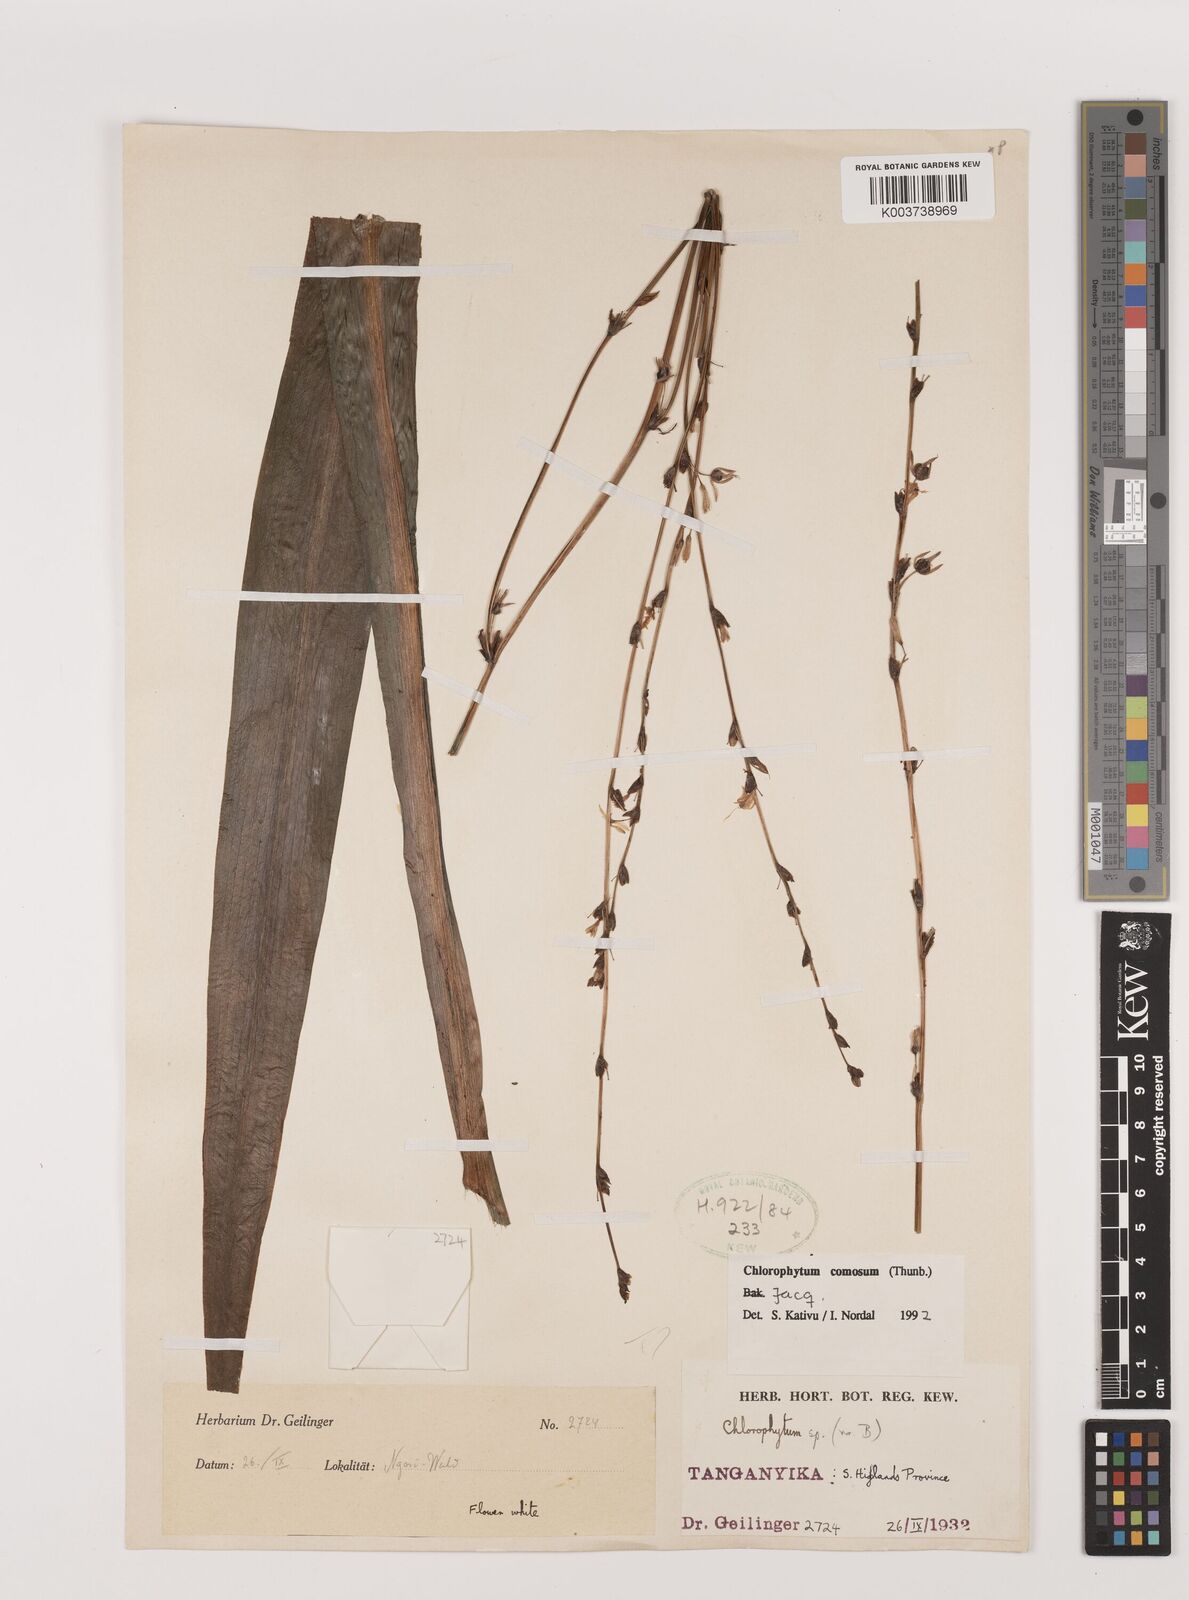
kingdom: Plantae
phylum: Tracheophyta
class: Liliopsida
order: Asparagales
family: Asparagaceae
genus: Chlorophytum
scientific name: Chlorophytum comosum
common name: Spider plant
